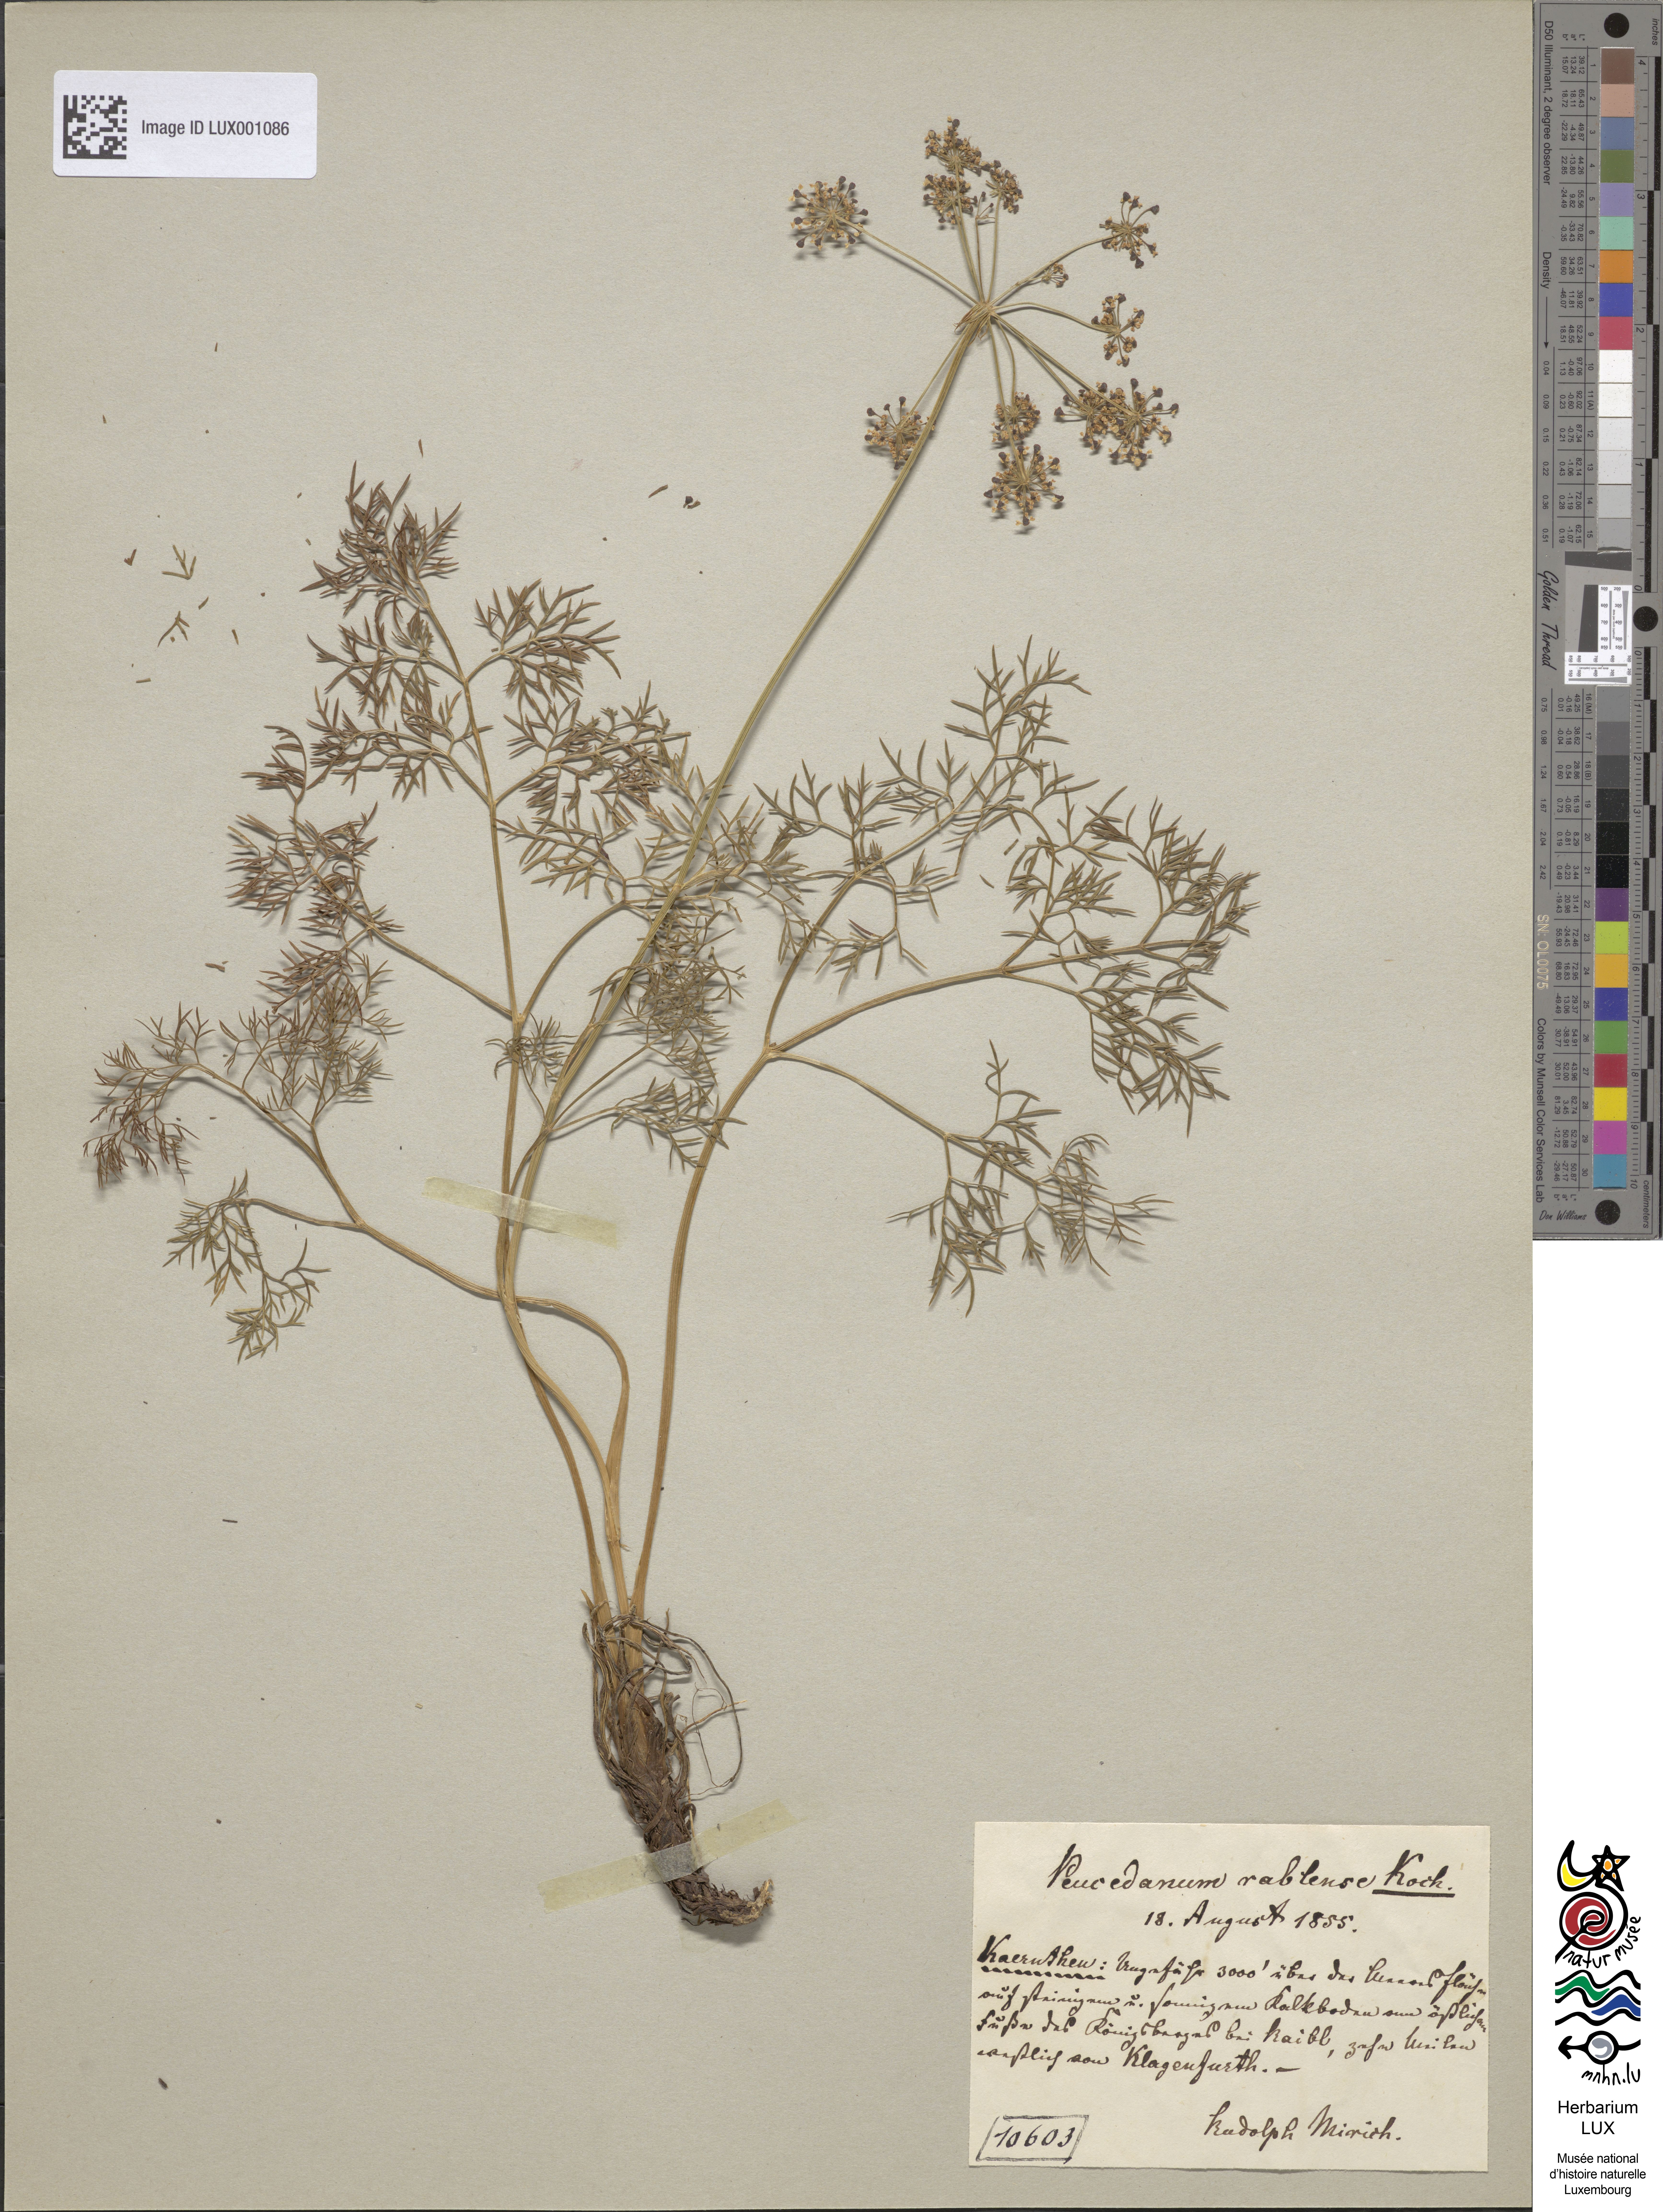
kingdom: Plantae
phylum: Tracheophyta
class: Magnoliopsida
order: Apiales
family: Apiaceae
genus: Peucedanum
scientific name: Peucedanum rablense
